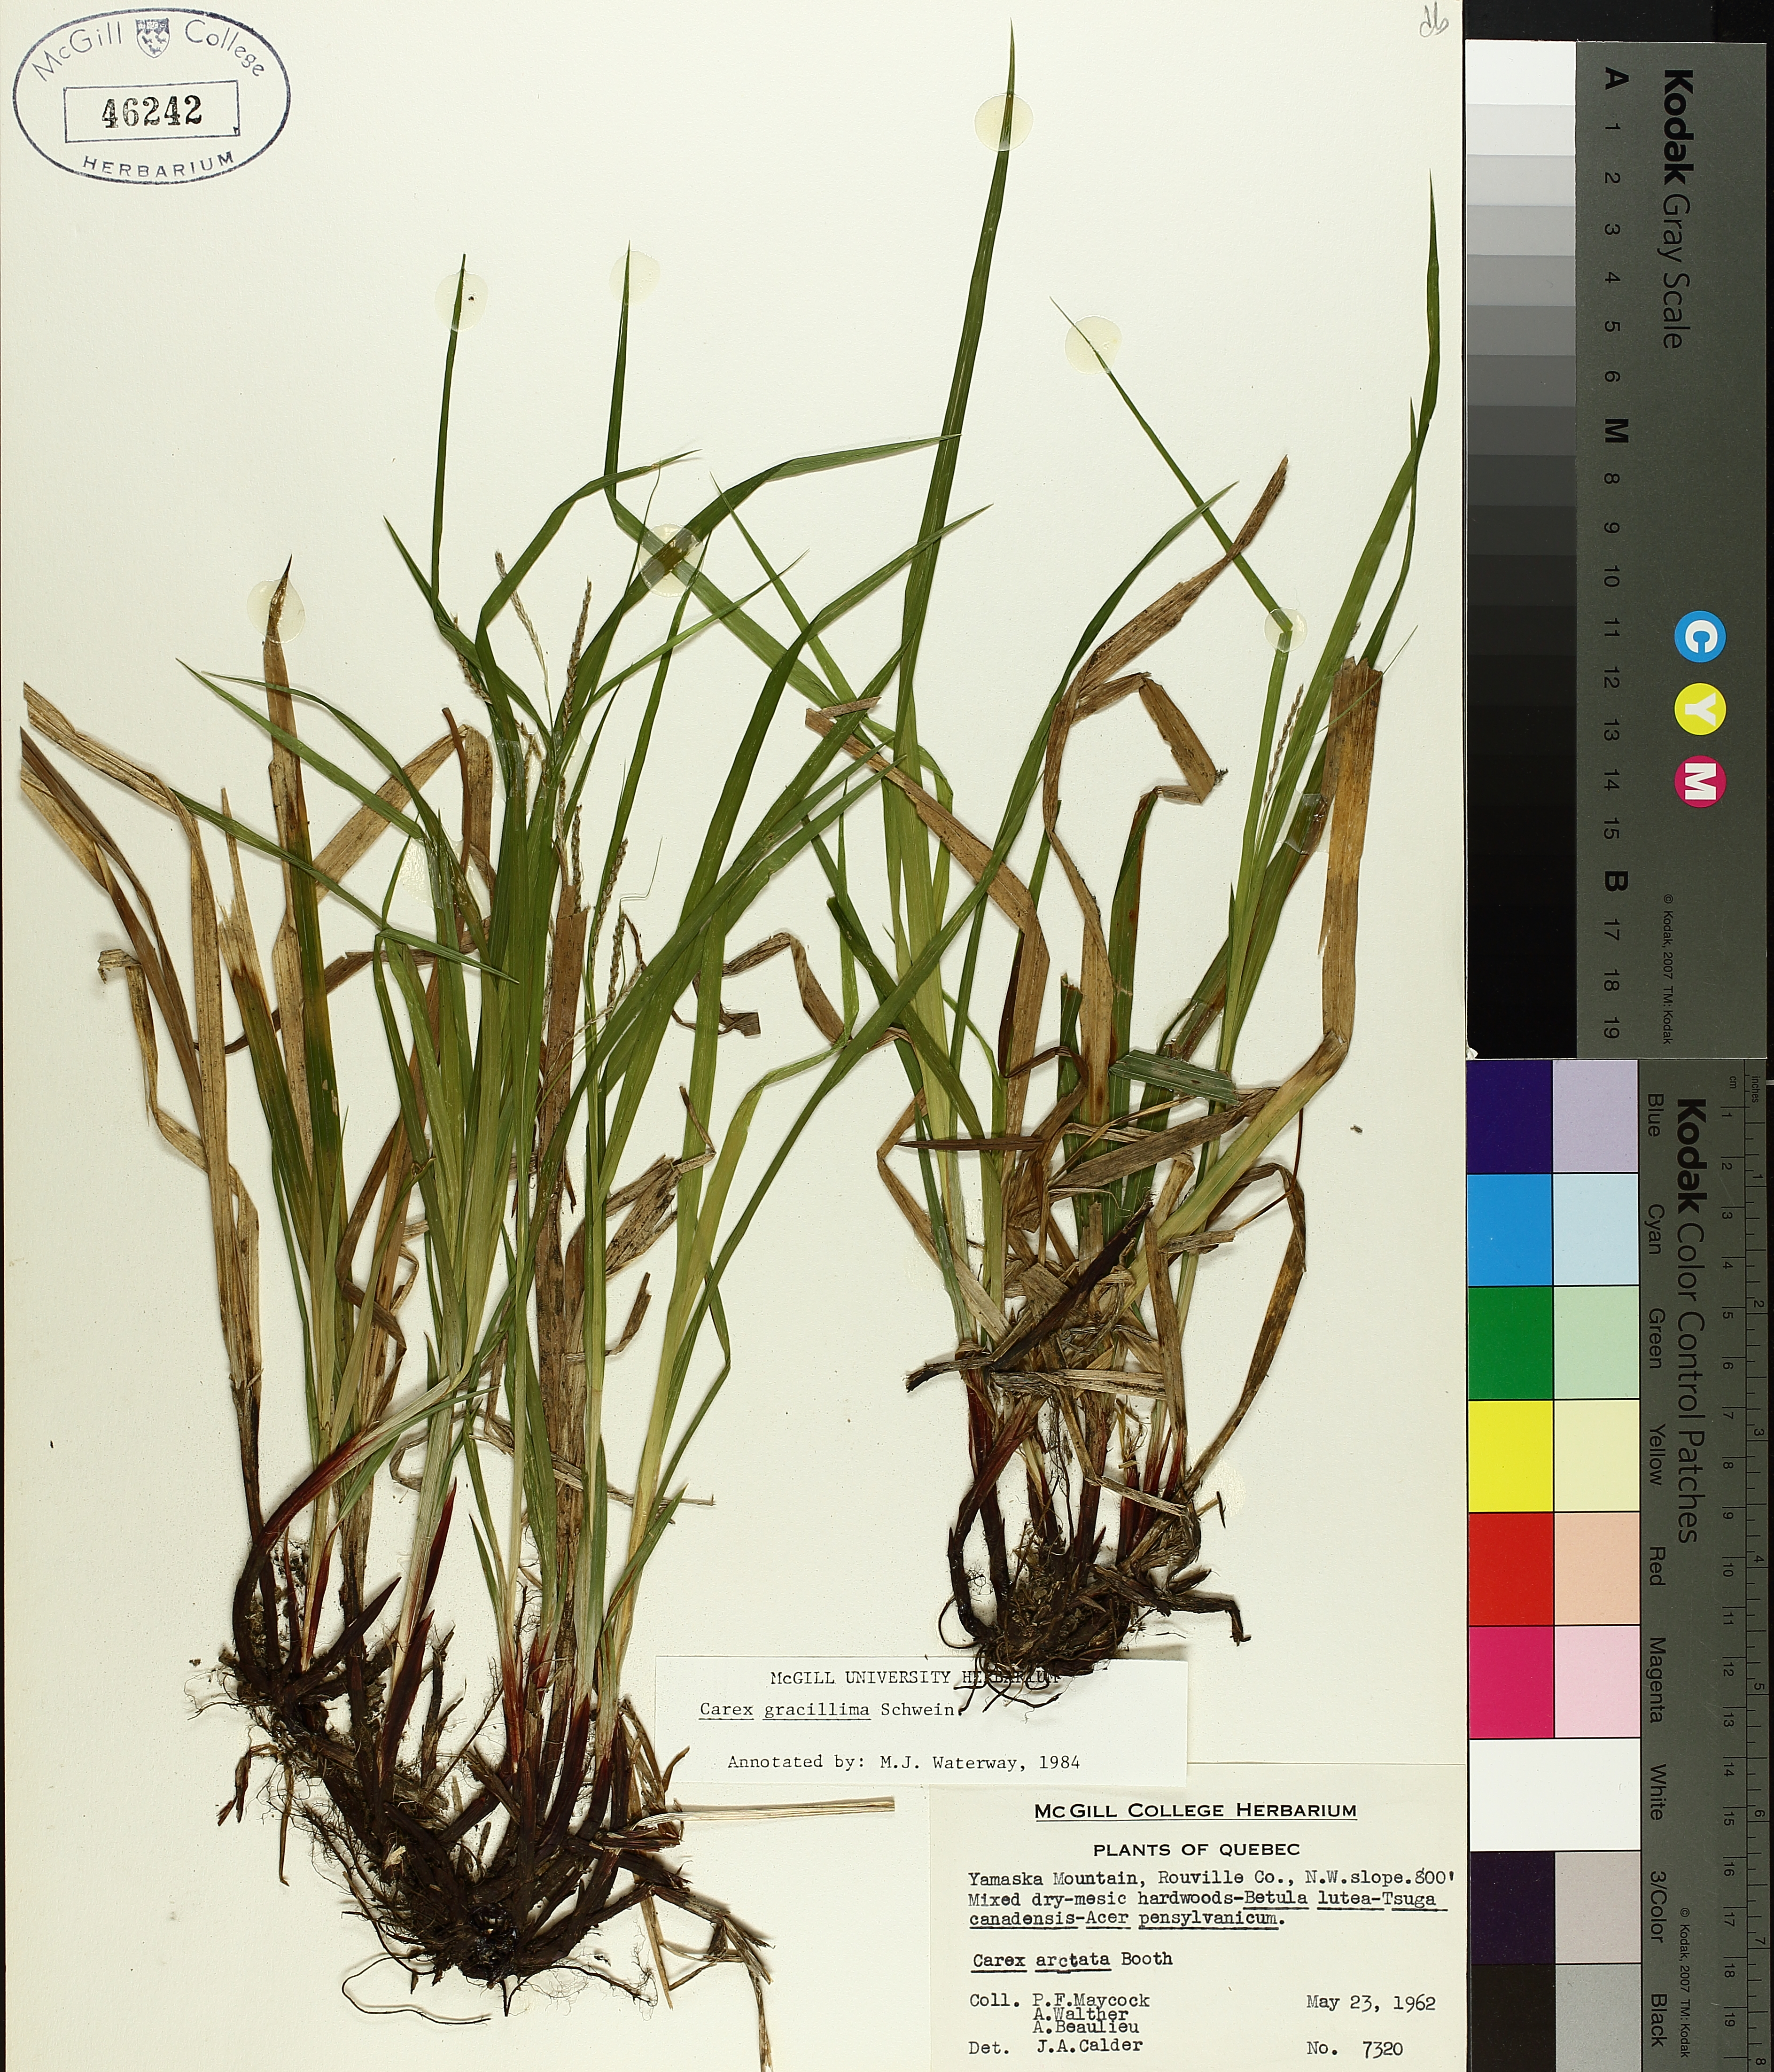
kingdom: Plantae
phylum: Tracheophyta
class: Liliopsida
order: Poales
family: Cyperaceae
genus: Carex
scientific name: Carex gracillima
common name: Graceful sedge
